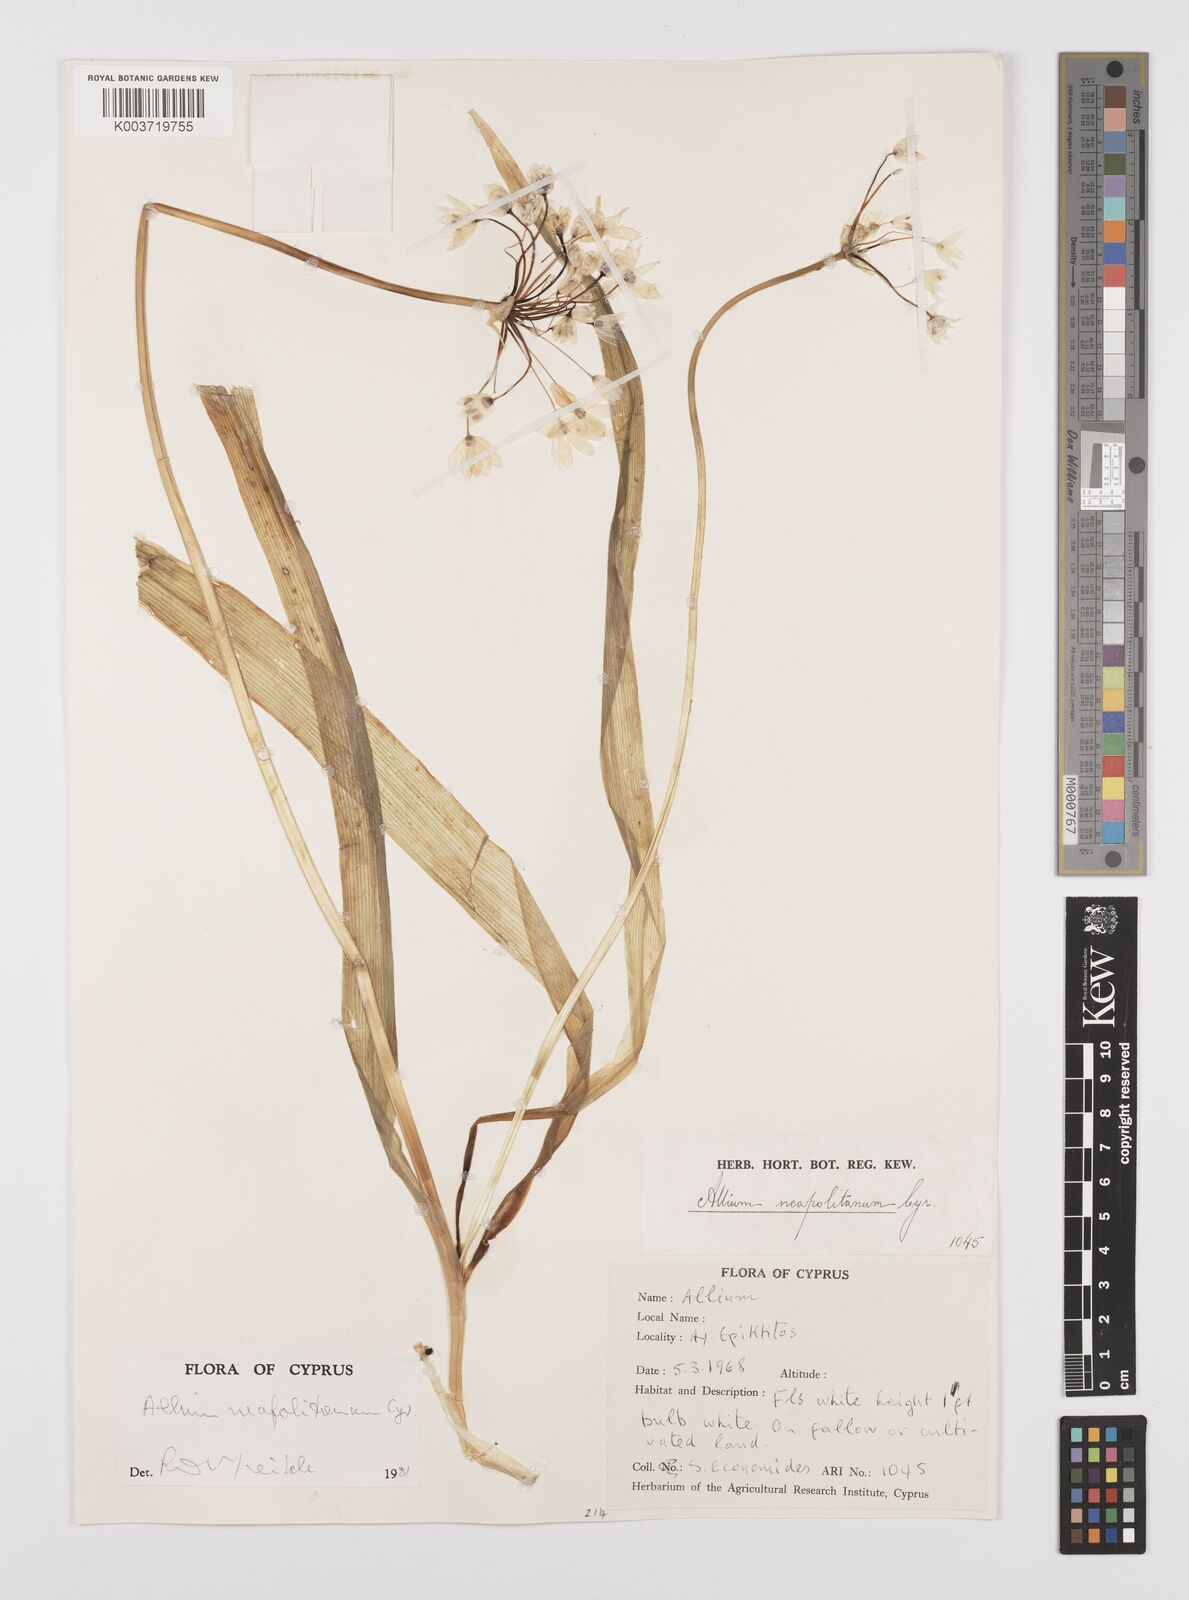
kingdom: Plantae
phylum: Tracheophyta
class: Liliopsida
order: Asparagales
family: Amaryllidaceae
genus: Allium
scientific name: Allium neapolitanum
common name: Neapolitan garlic
